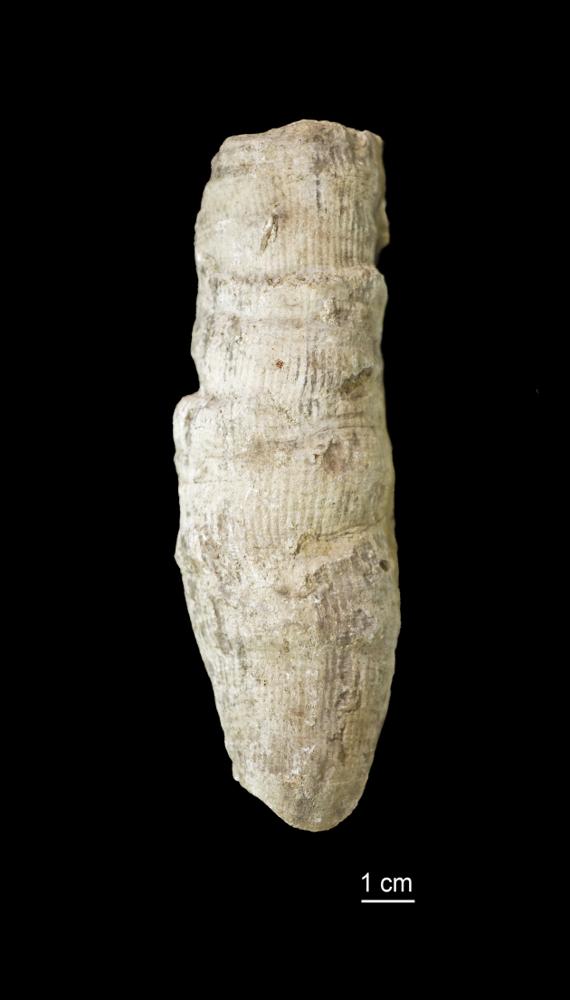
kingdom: Animalia
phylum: Cnidaria
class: Anthozoa
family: Cyathophyllidae
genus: Cyathophyllum
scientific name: Cyathophyllum
